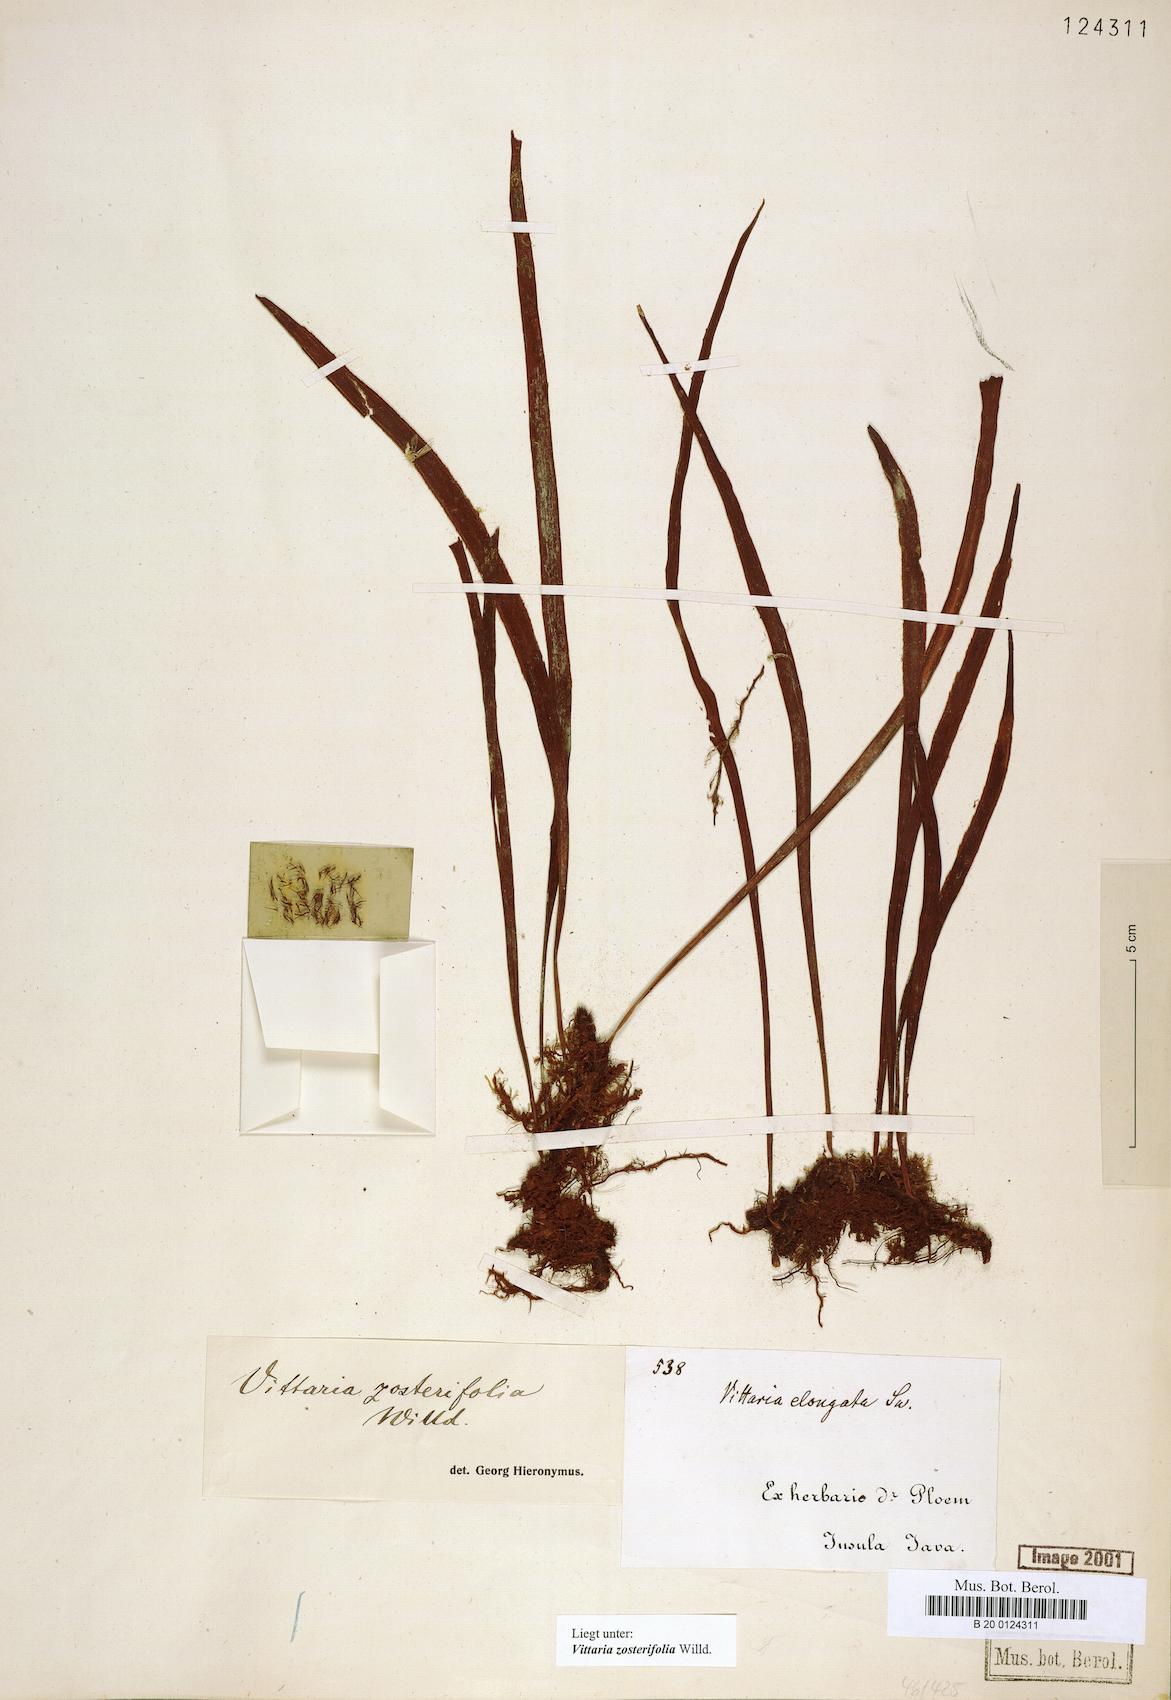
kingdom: Plantae
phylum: Tracheophyta
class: Polypodiopsida
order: Polypodiales
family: Pteridaceae
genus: Haplopteris
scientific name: Haplopteris zosterifolia
